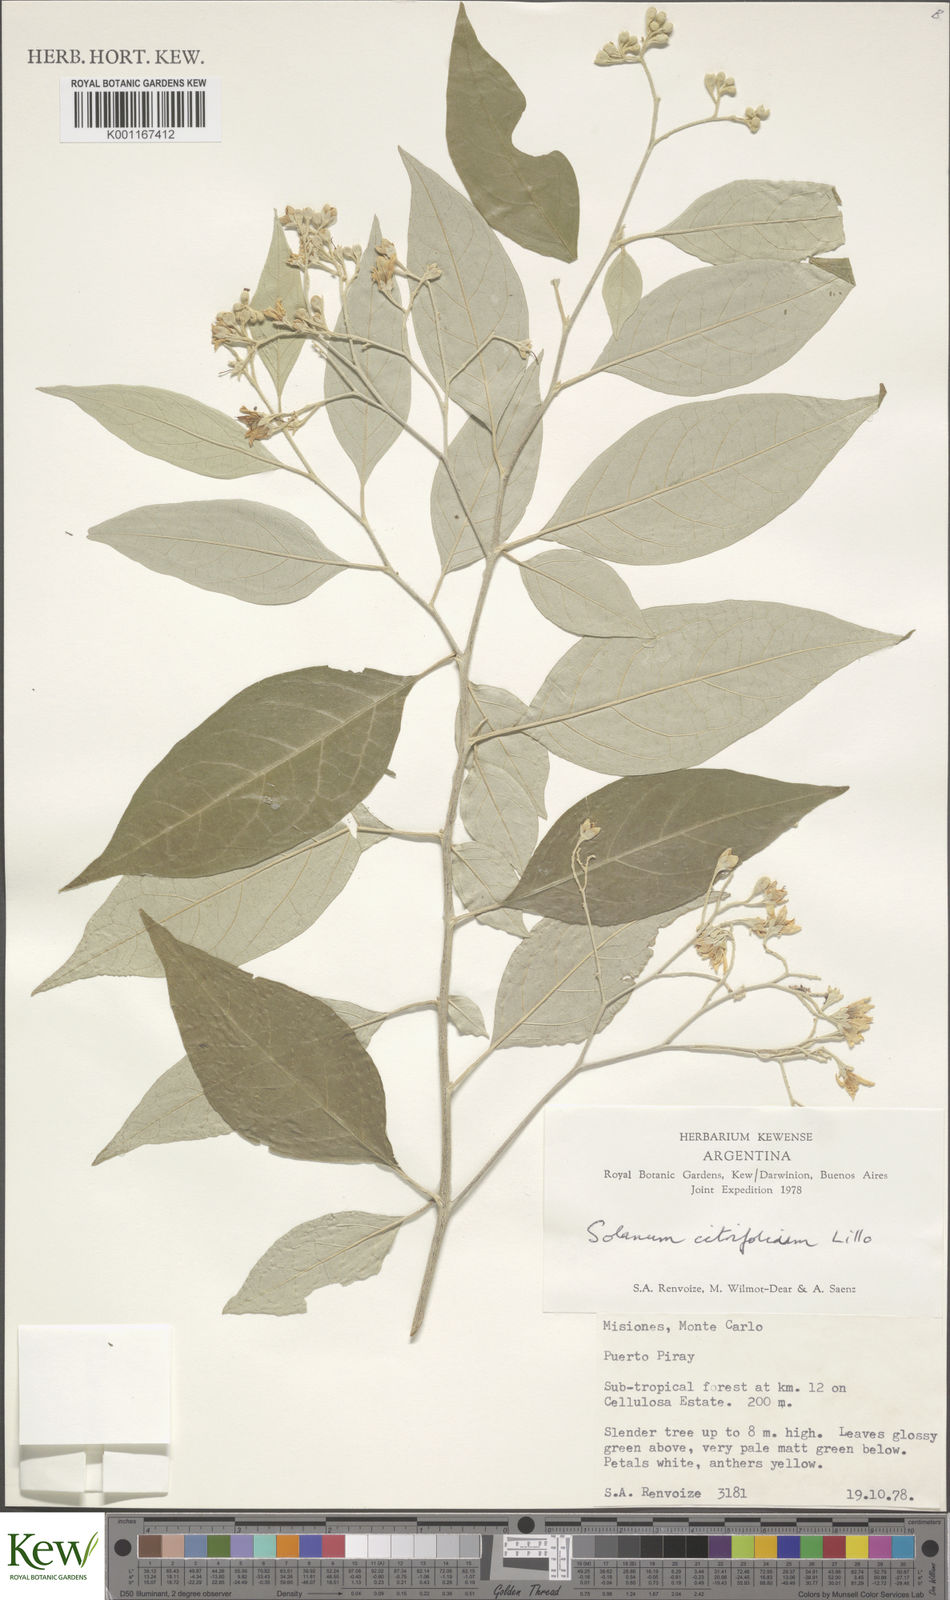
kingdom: Plantae
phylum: Tracheophyta
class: Magnoliopsida
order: Solanales
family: Solanaceae
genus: Solanum
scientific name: Solanum
